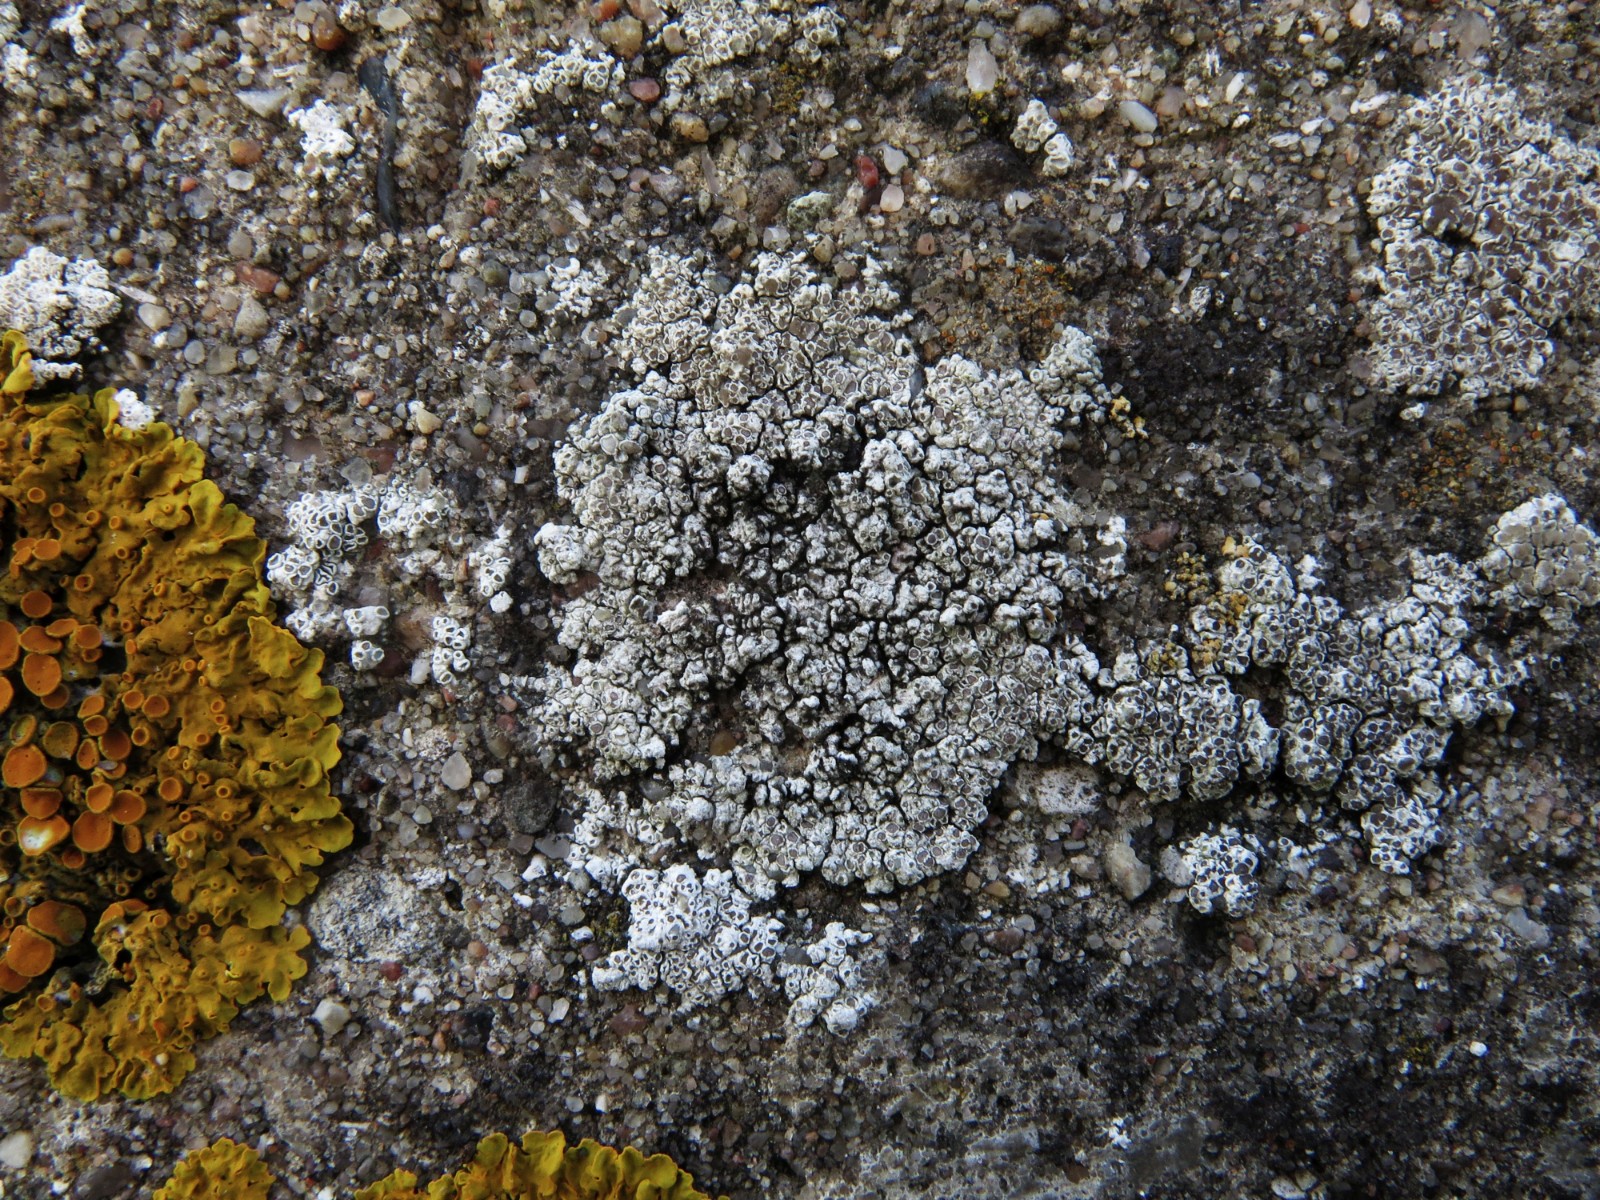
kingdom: Fungi
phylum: Ascomycota
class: Lecanoromycetes
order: Lecanorales
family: Lecanoraceae
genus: Polyozosia
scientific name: Polyozosia albescens
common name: cement-kantskivelav
